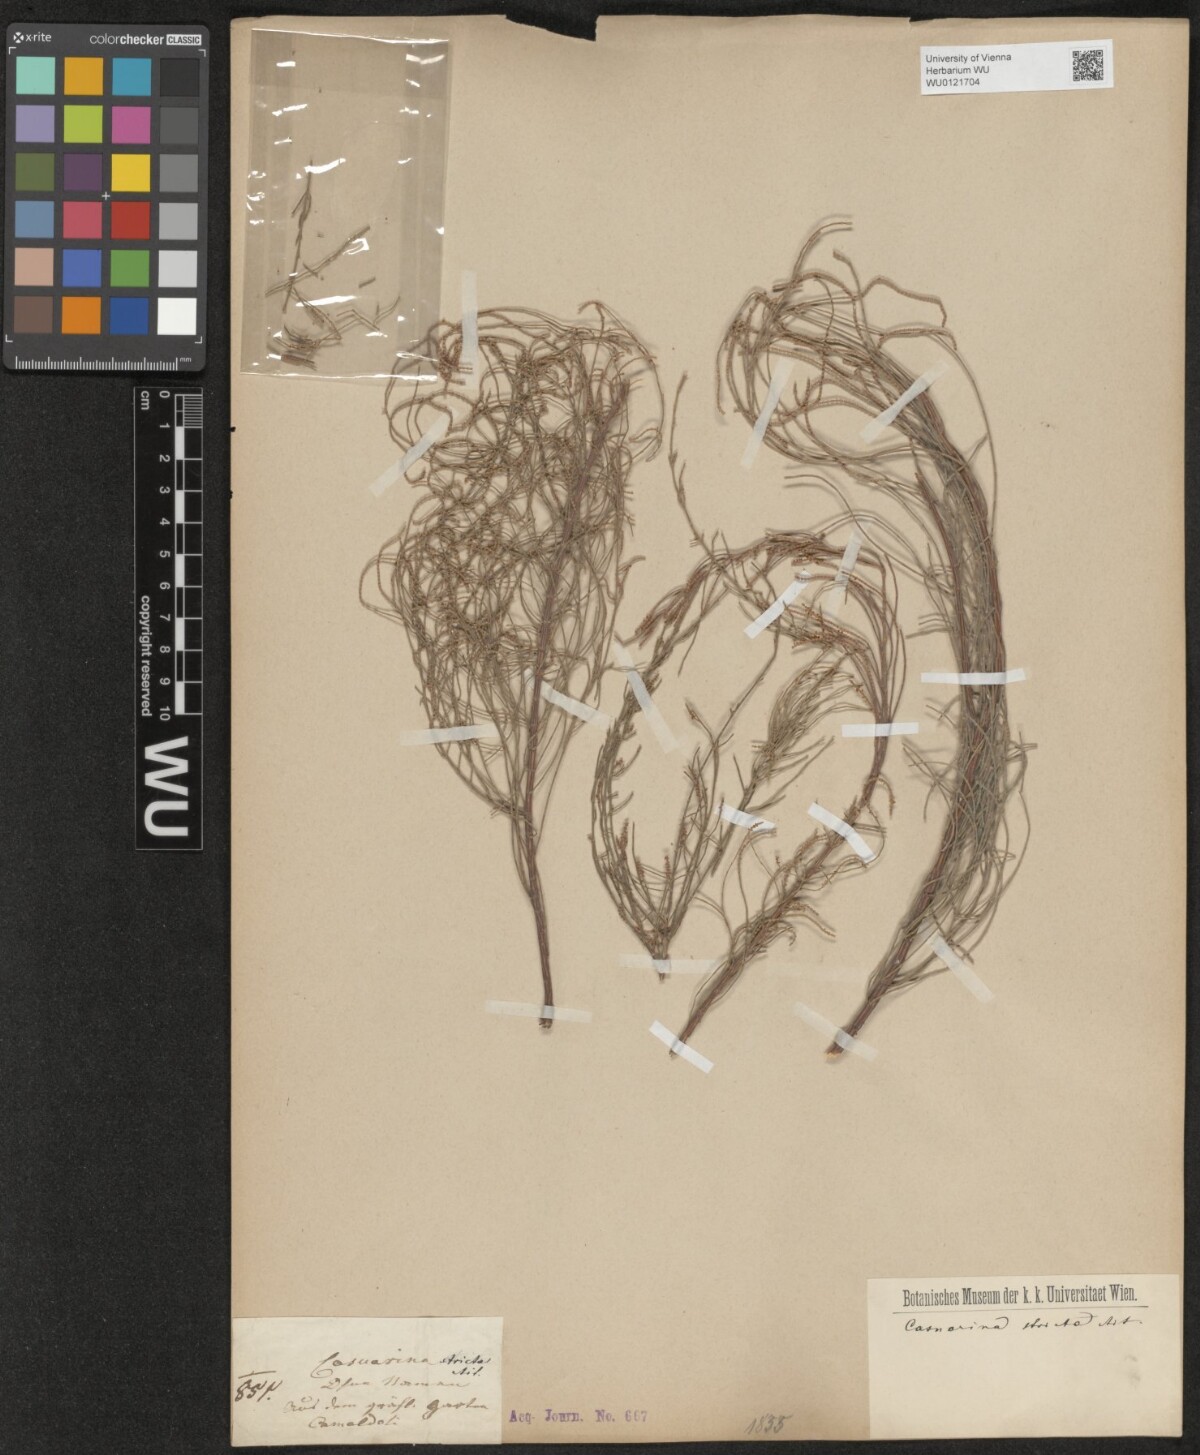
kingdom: Plantae
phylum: Tracheophyta
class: Magnoliopsida
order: Fagales
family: Casuarinaceae
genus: Casuarina
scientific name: Casuarina stricta
